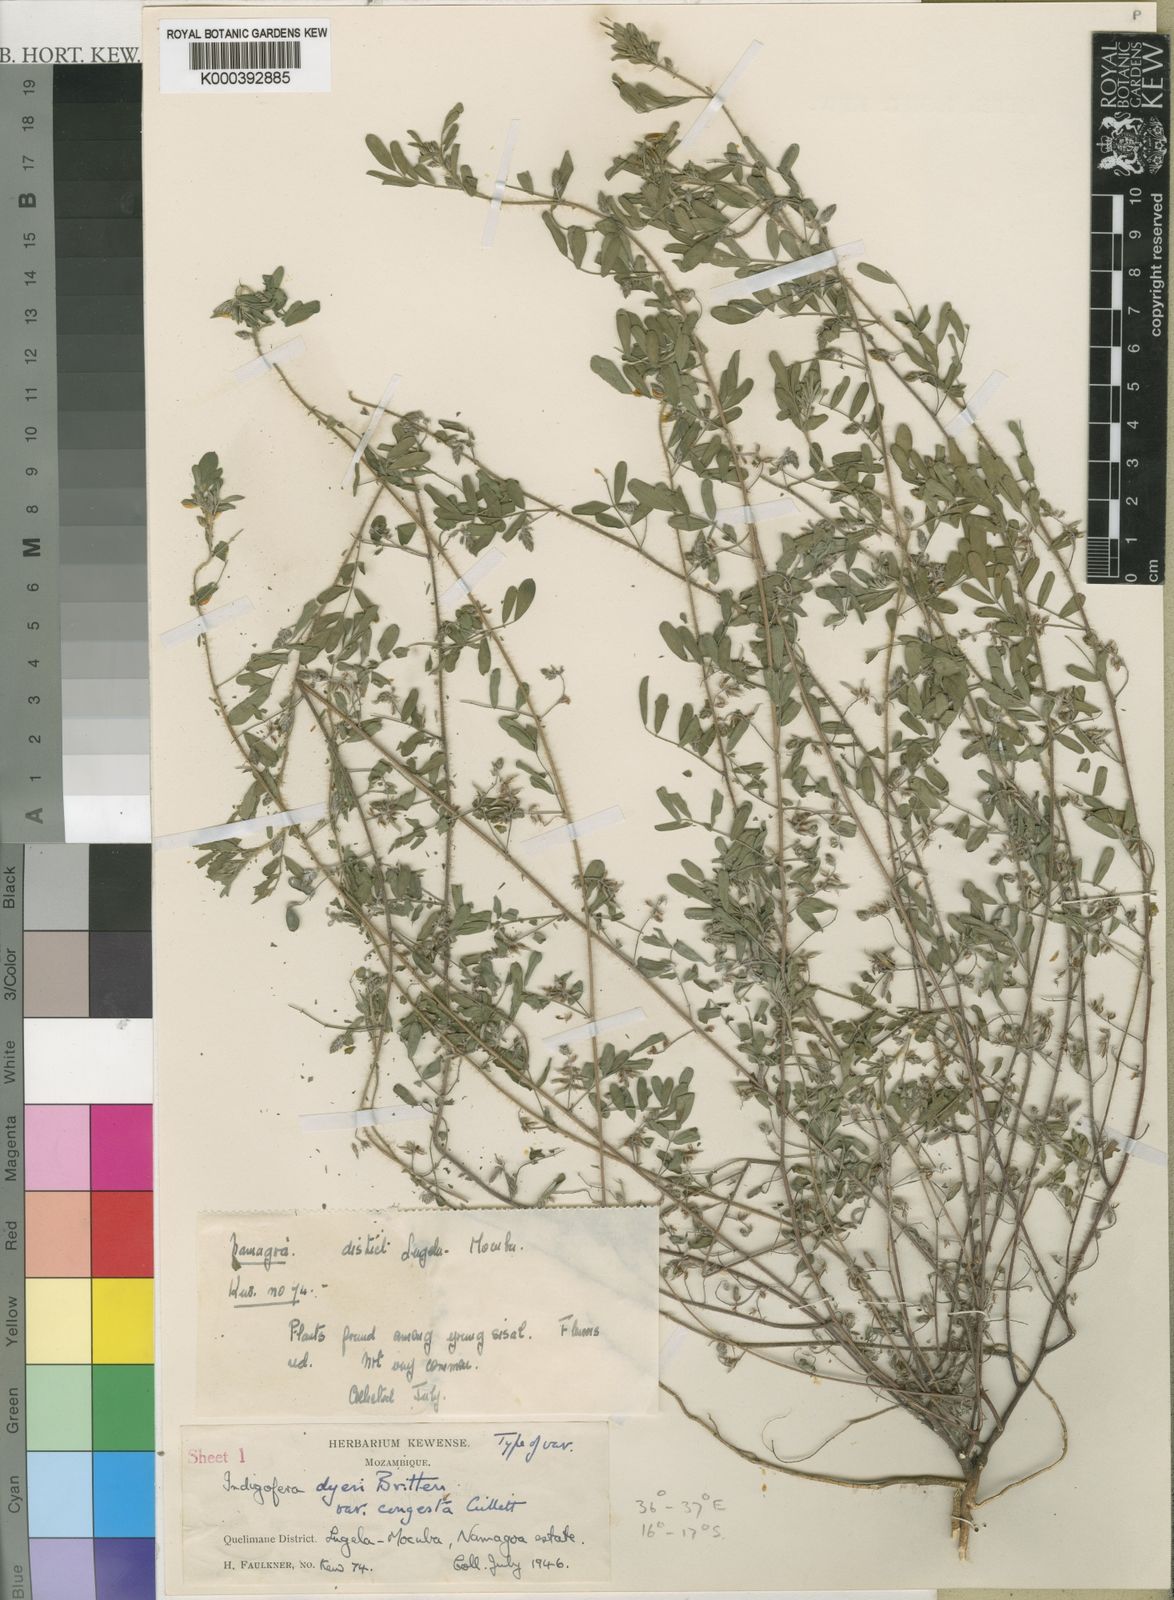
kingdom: Plantae
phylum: Tracheophyta
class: Magnoliopsida
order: Fabales
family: Fabaceae
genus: Indigofera
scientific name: Indigofera pseudodyeri
